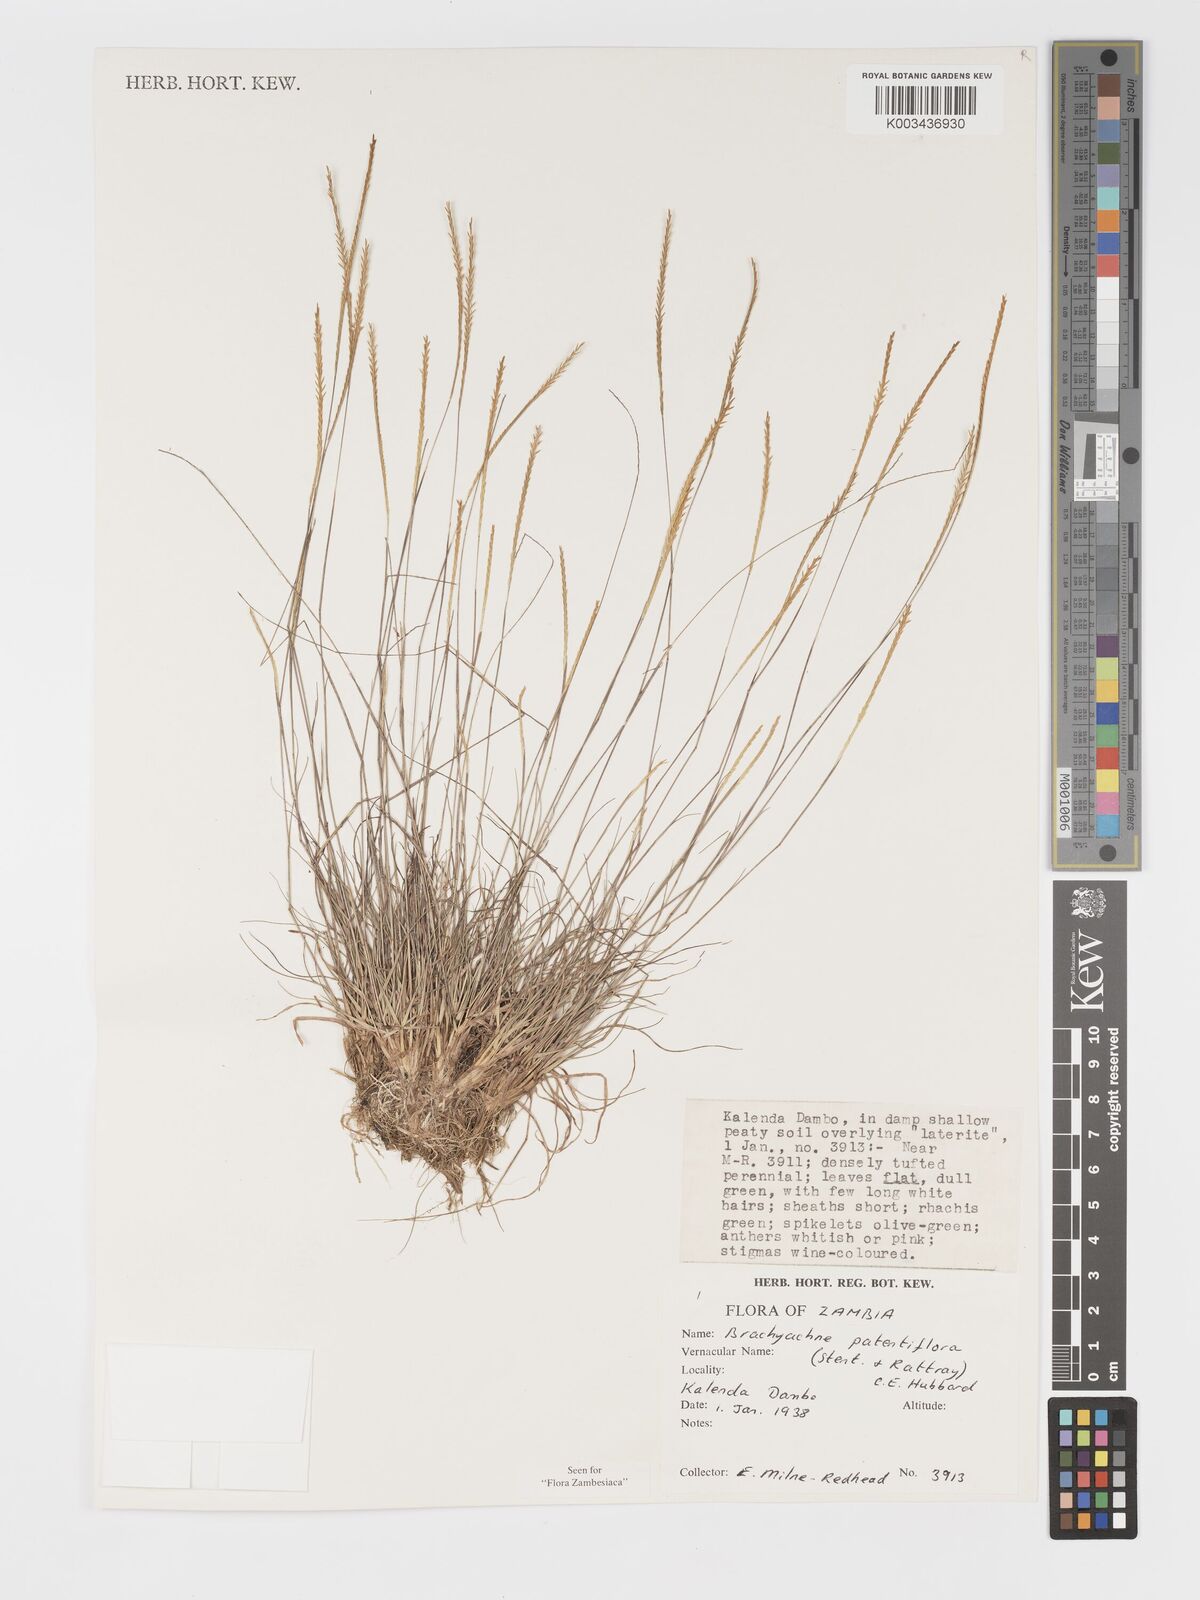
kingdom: Plantae
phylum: Tracheophyta
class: Liliopsida
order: Poales
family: Poaceae
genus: Micrachne
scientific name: Micrachne patentiflora
